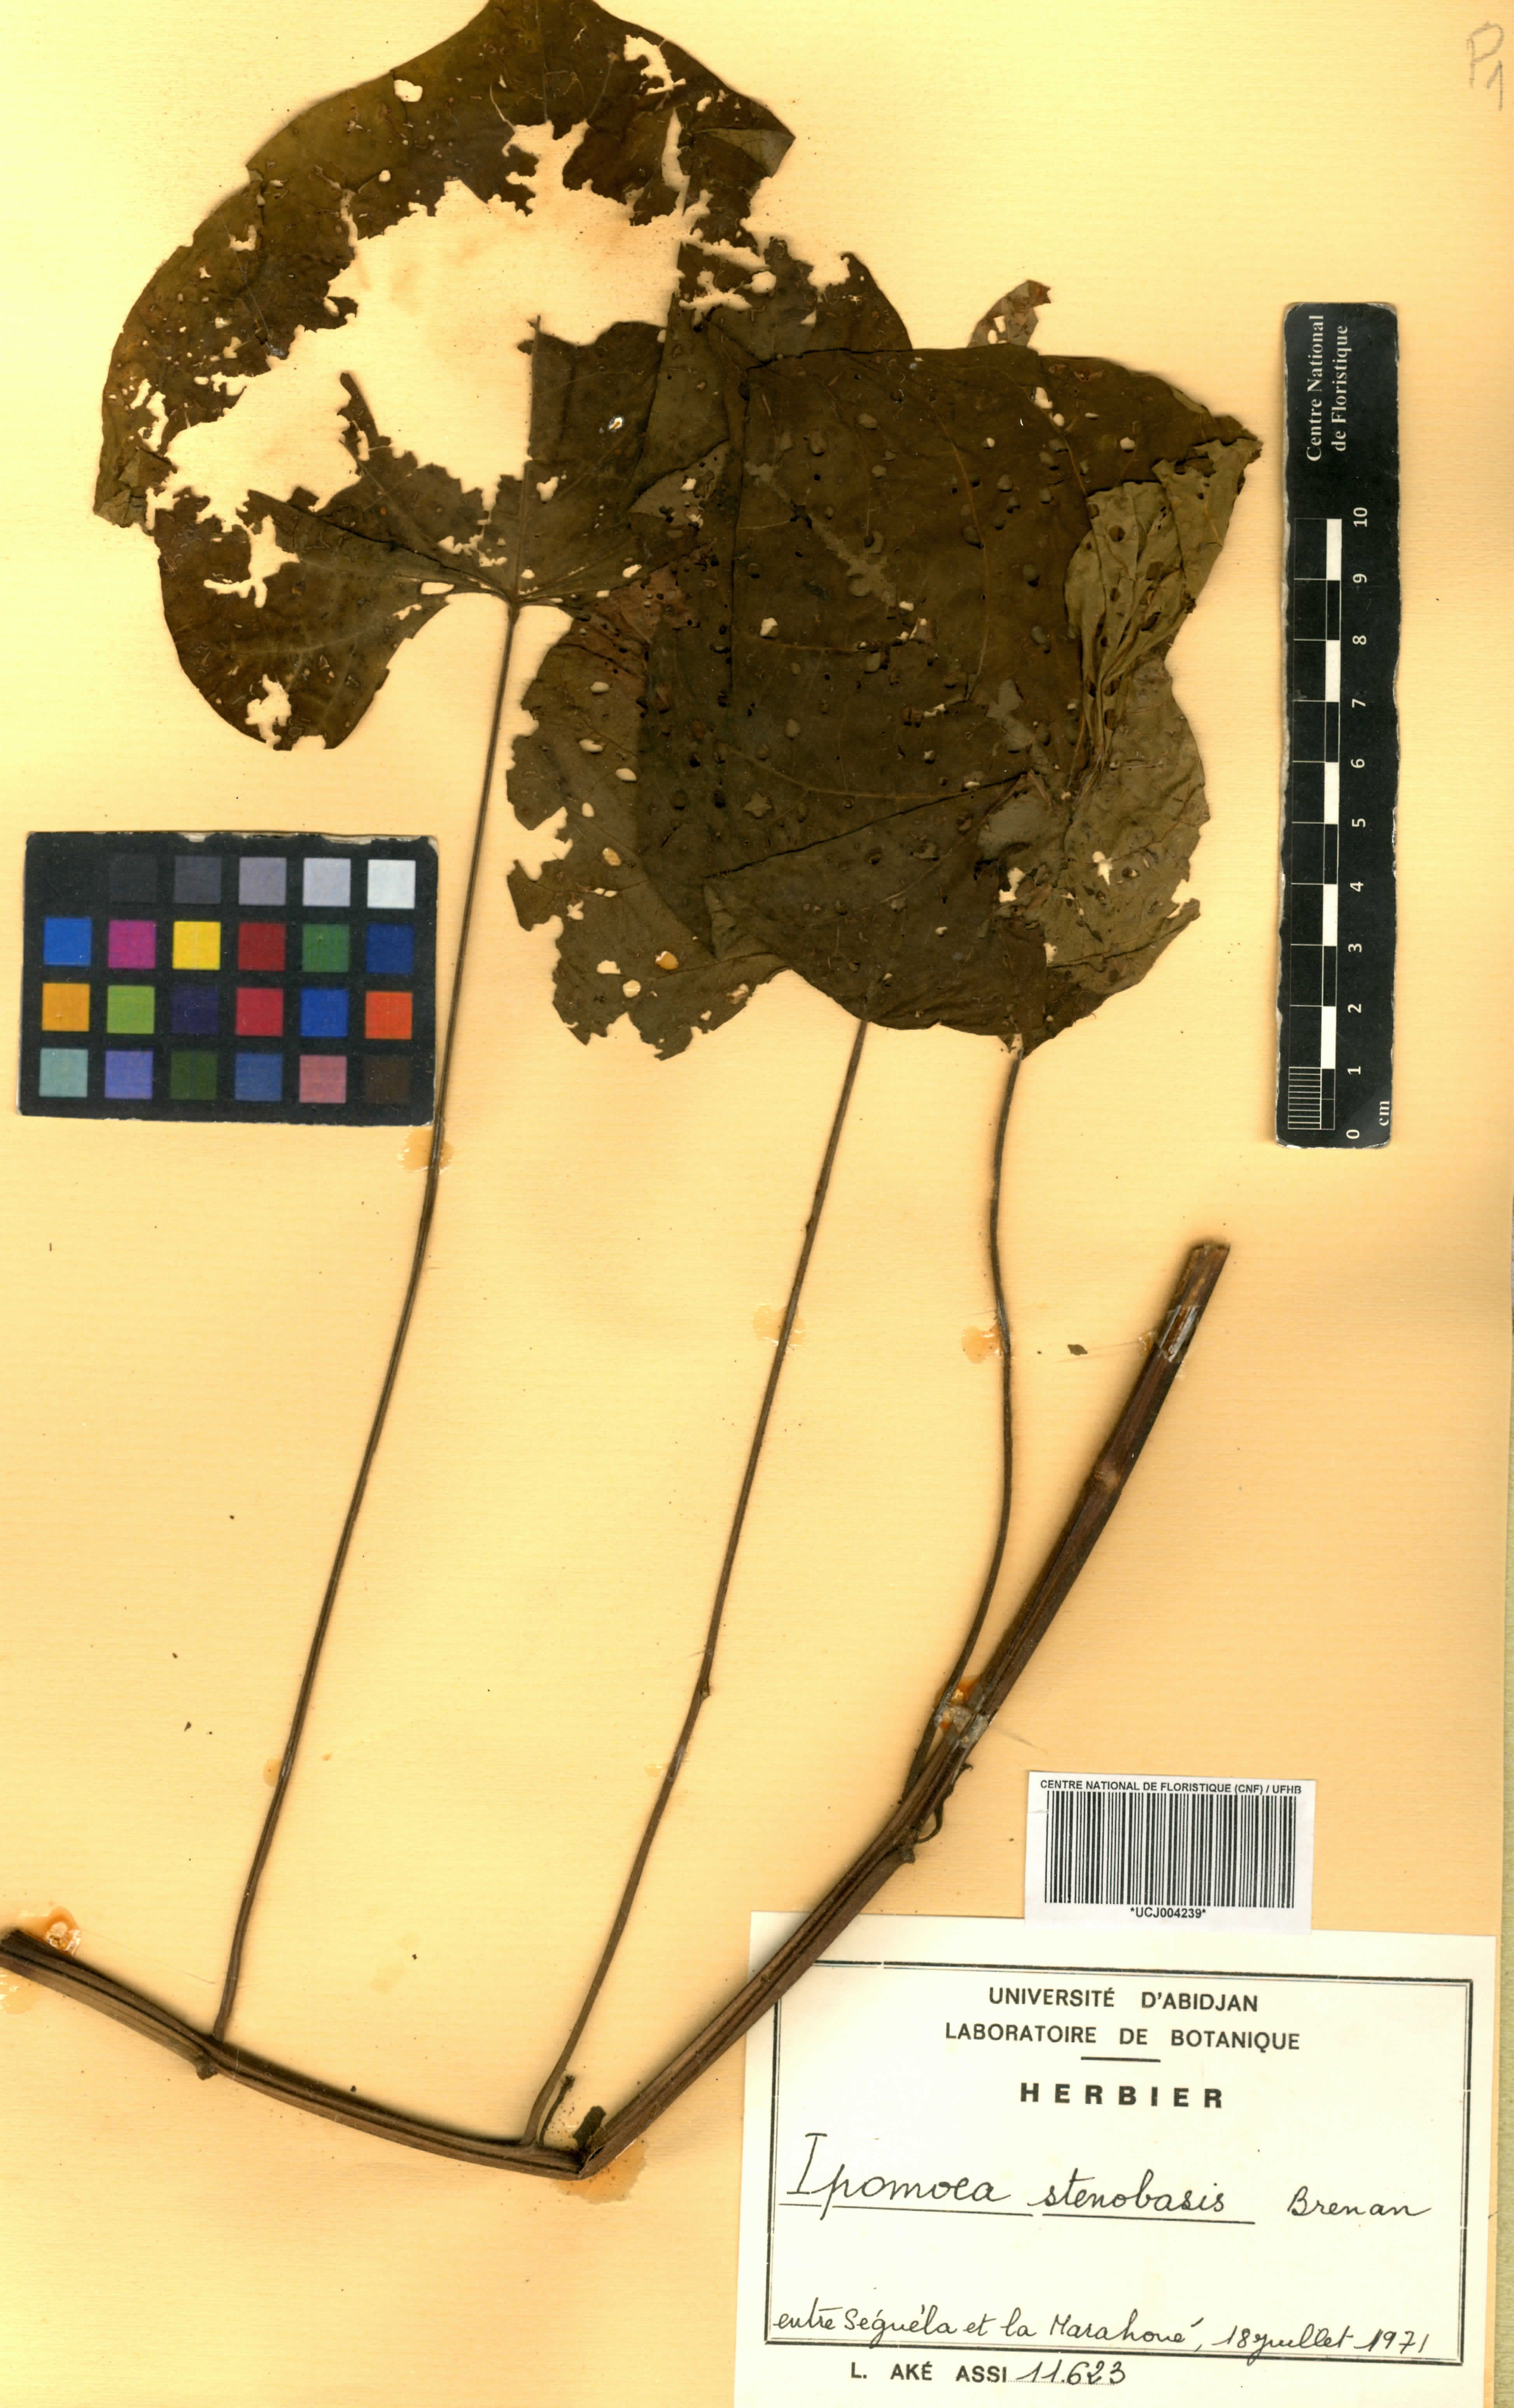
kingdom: Plantae
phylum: Tracheophyta
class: Magnoliopsida
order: Solanales
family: Convolvulaceae
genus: Ipomoea
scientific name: Ipomoea stenobasis
